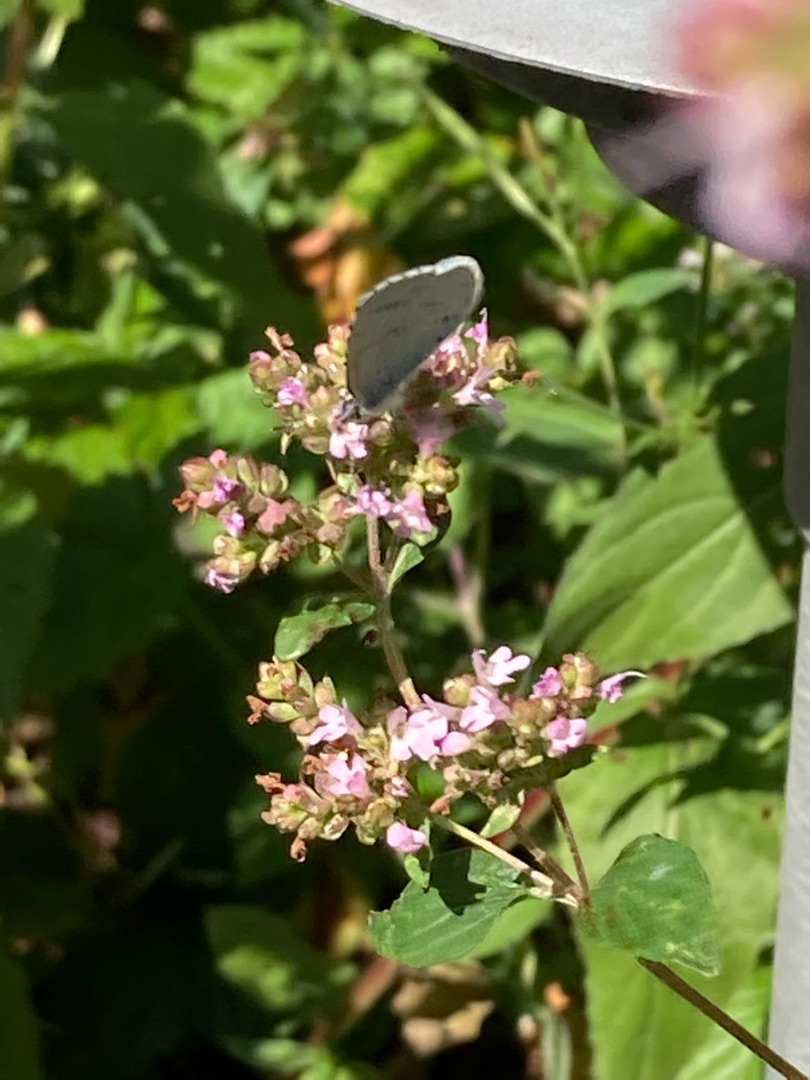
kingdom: Animalia
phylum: Arthropoda
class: Insecta
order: Lepidoptera
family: Lycaenidae
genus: Celastrina
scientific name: Celastrina argiolus
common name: Skovblåfugl
